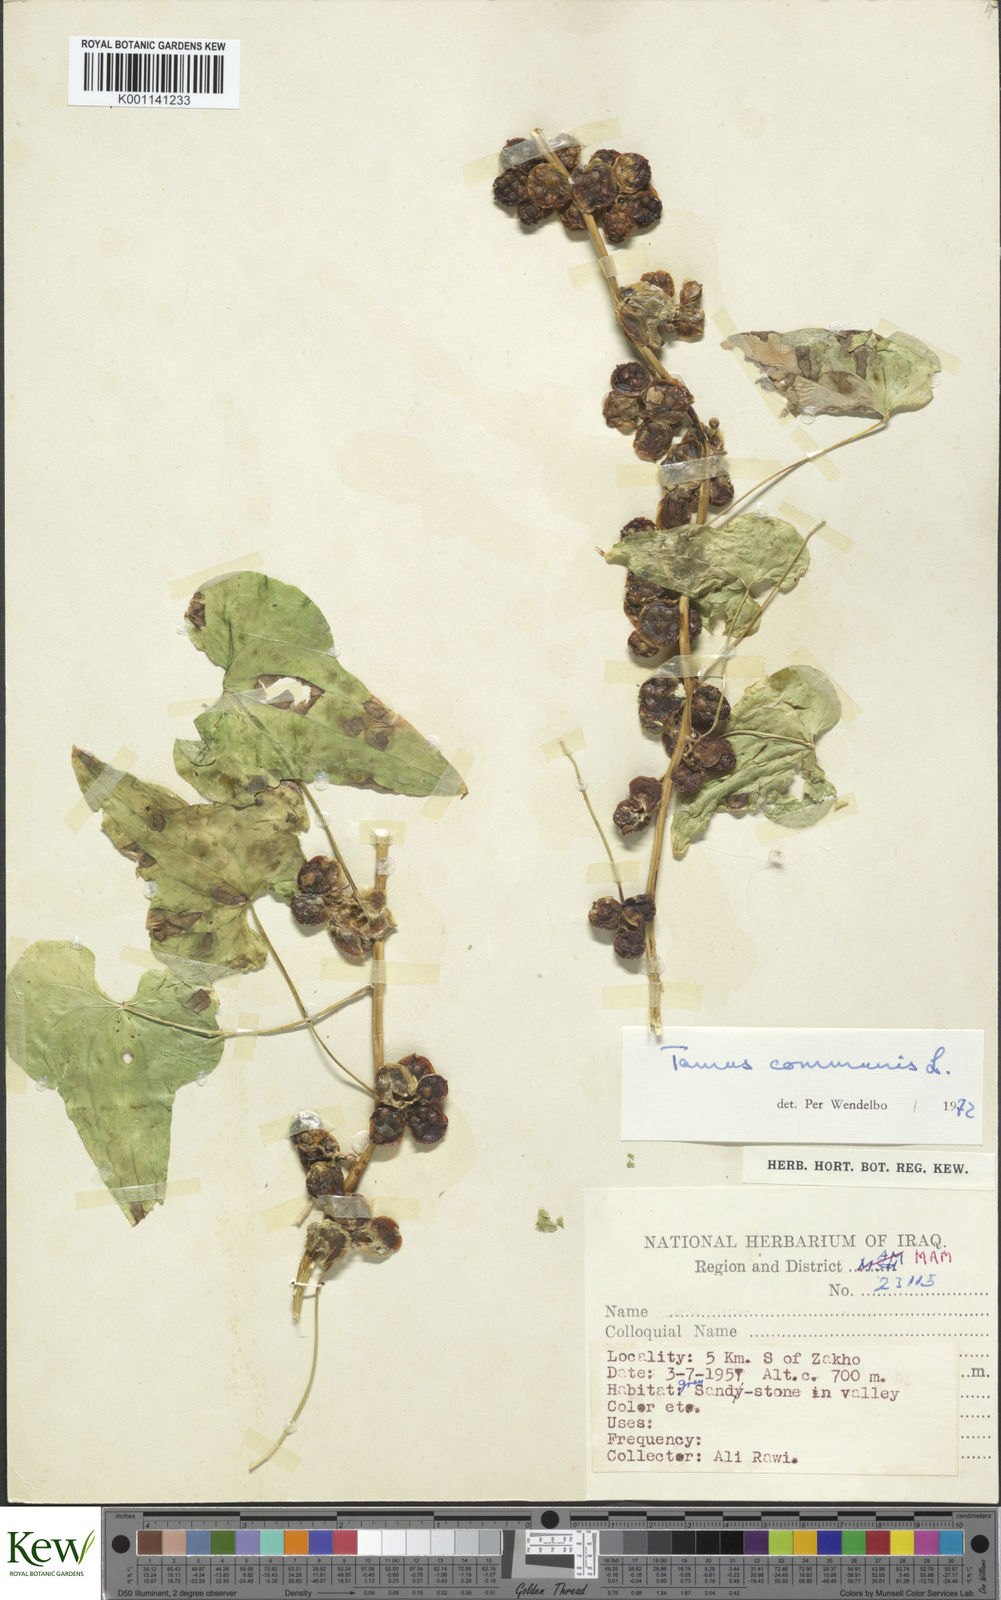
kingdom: Plantae
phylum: Tracheophyta
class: Liliopsida
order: Dioscoreales
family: Dioscoreaceae
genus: Dioscorea
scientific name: Dioscorea communis
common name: Black-bindweed
